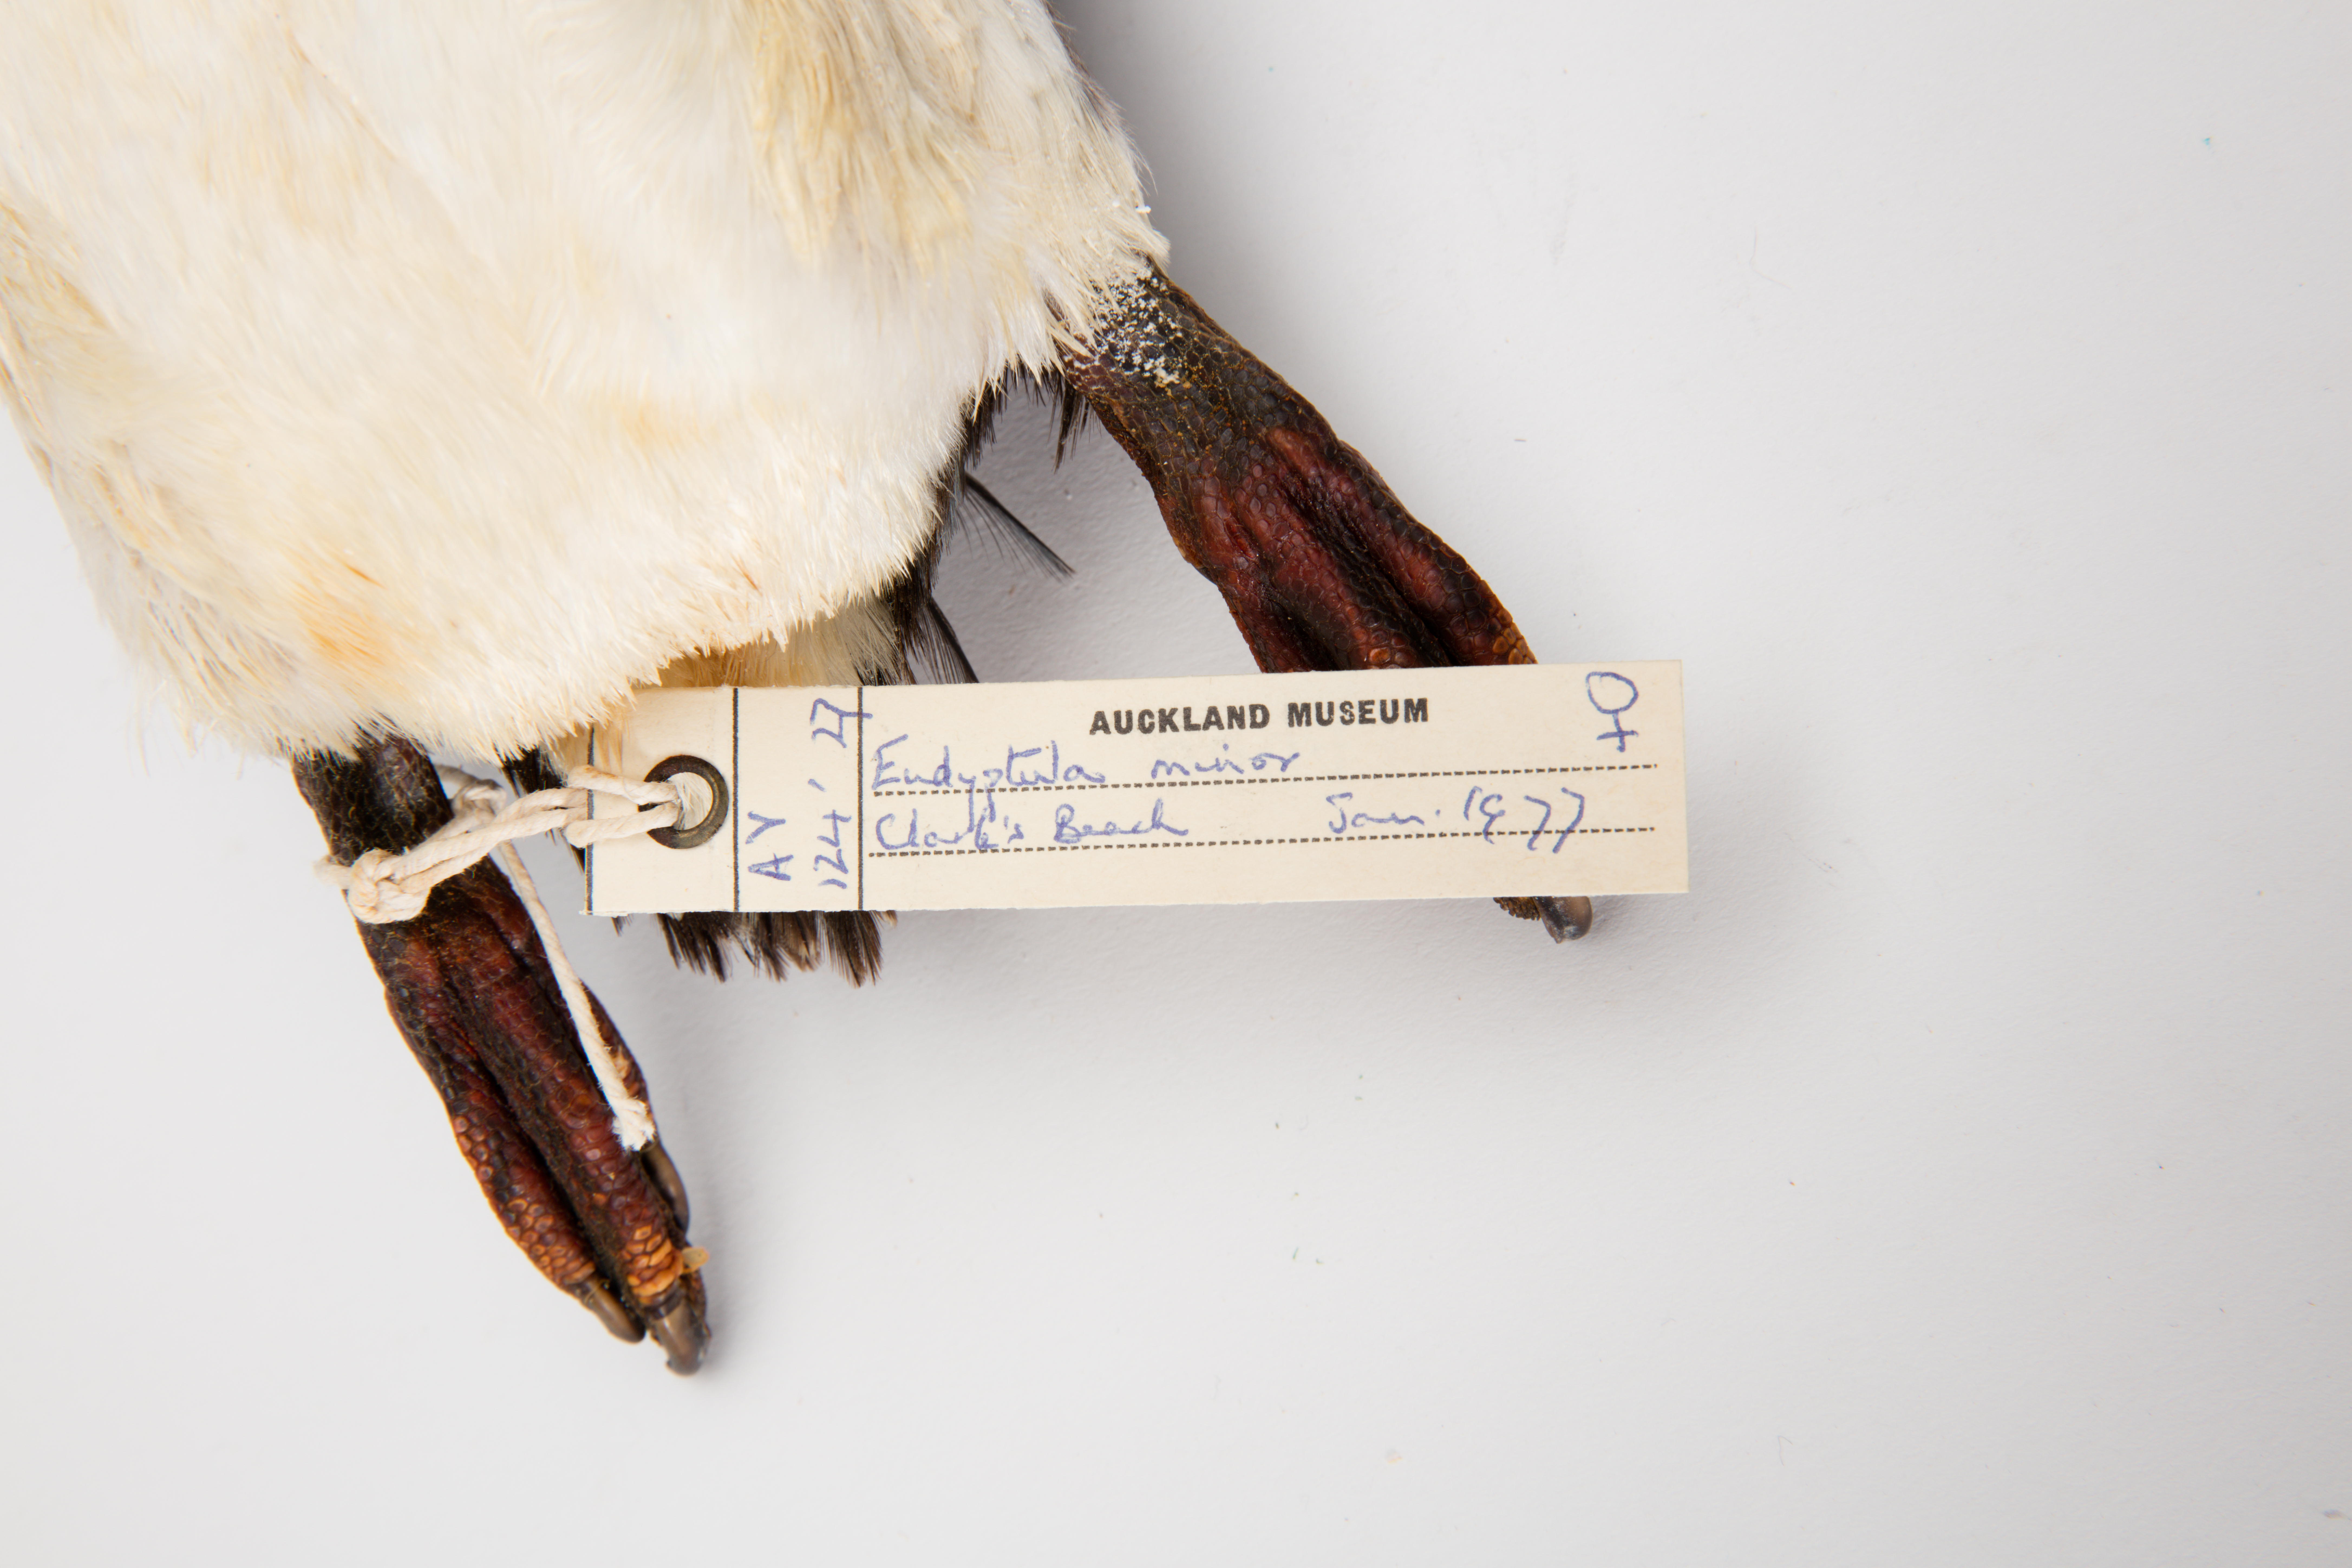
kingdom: Animalia
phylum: Chordata
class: Aves
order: Sphenisciformes
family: Spheniscidae
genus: Eudyptula
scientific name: Eudyptula minor
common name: Little penguin
